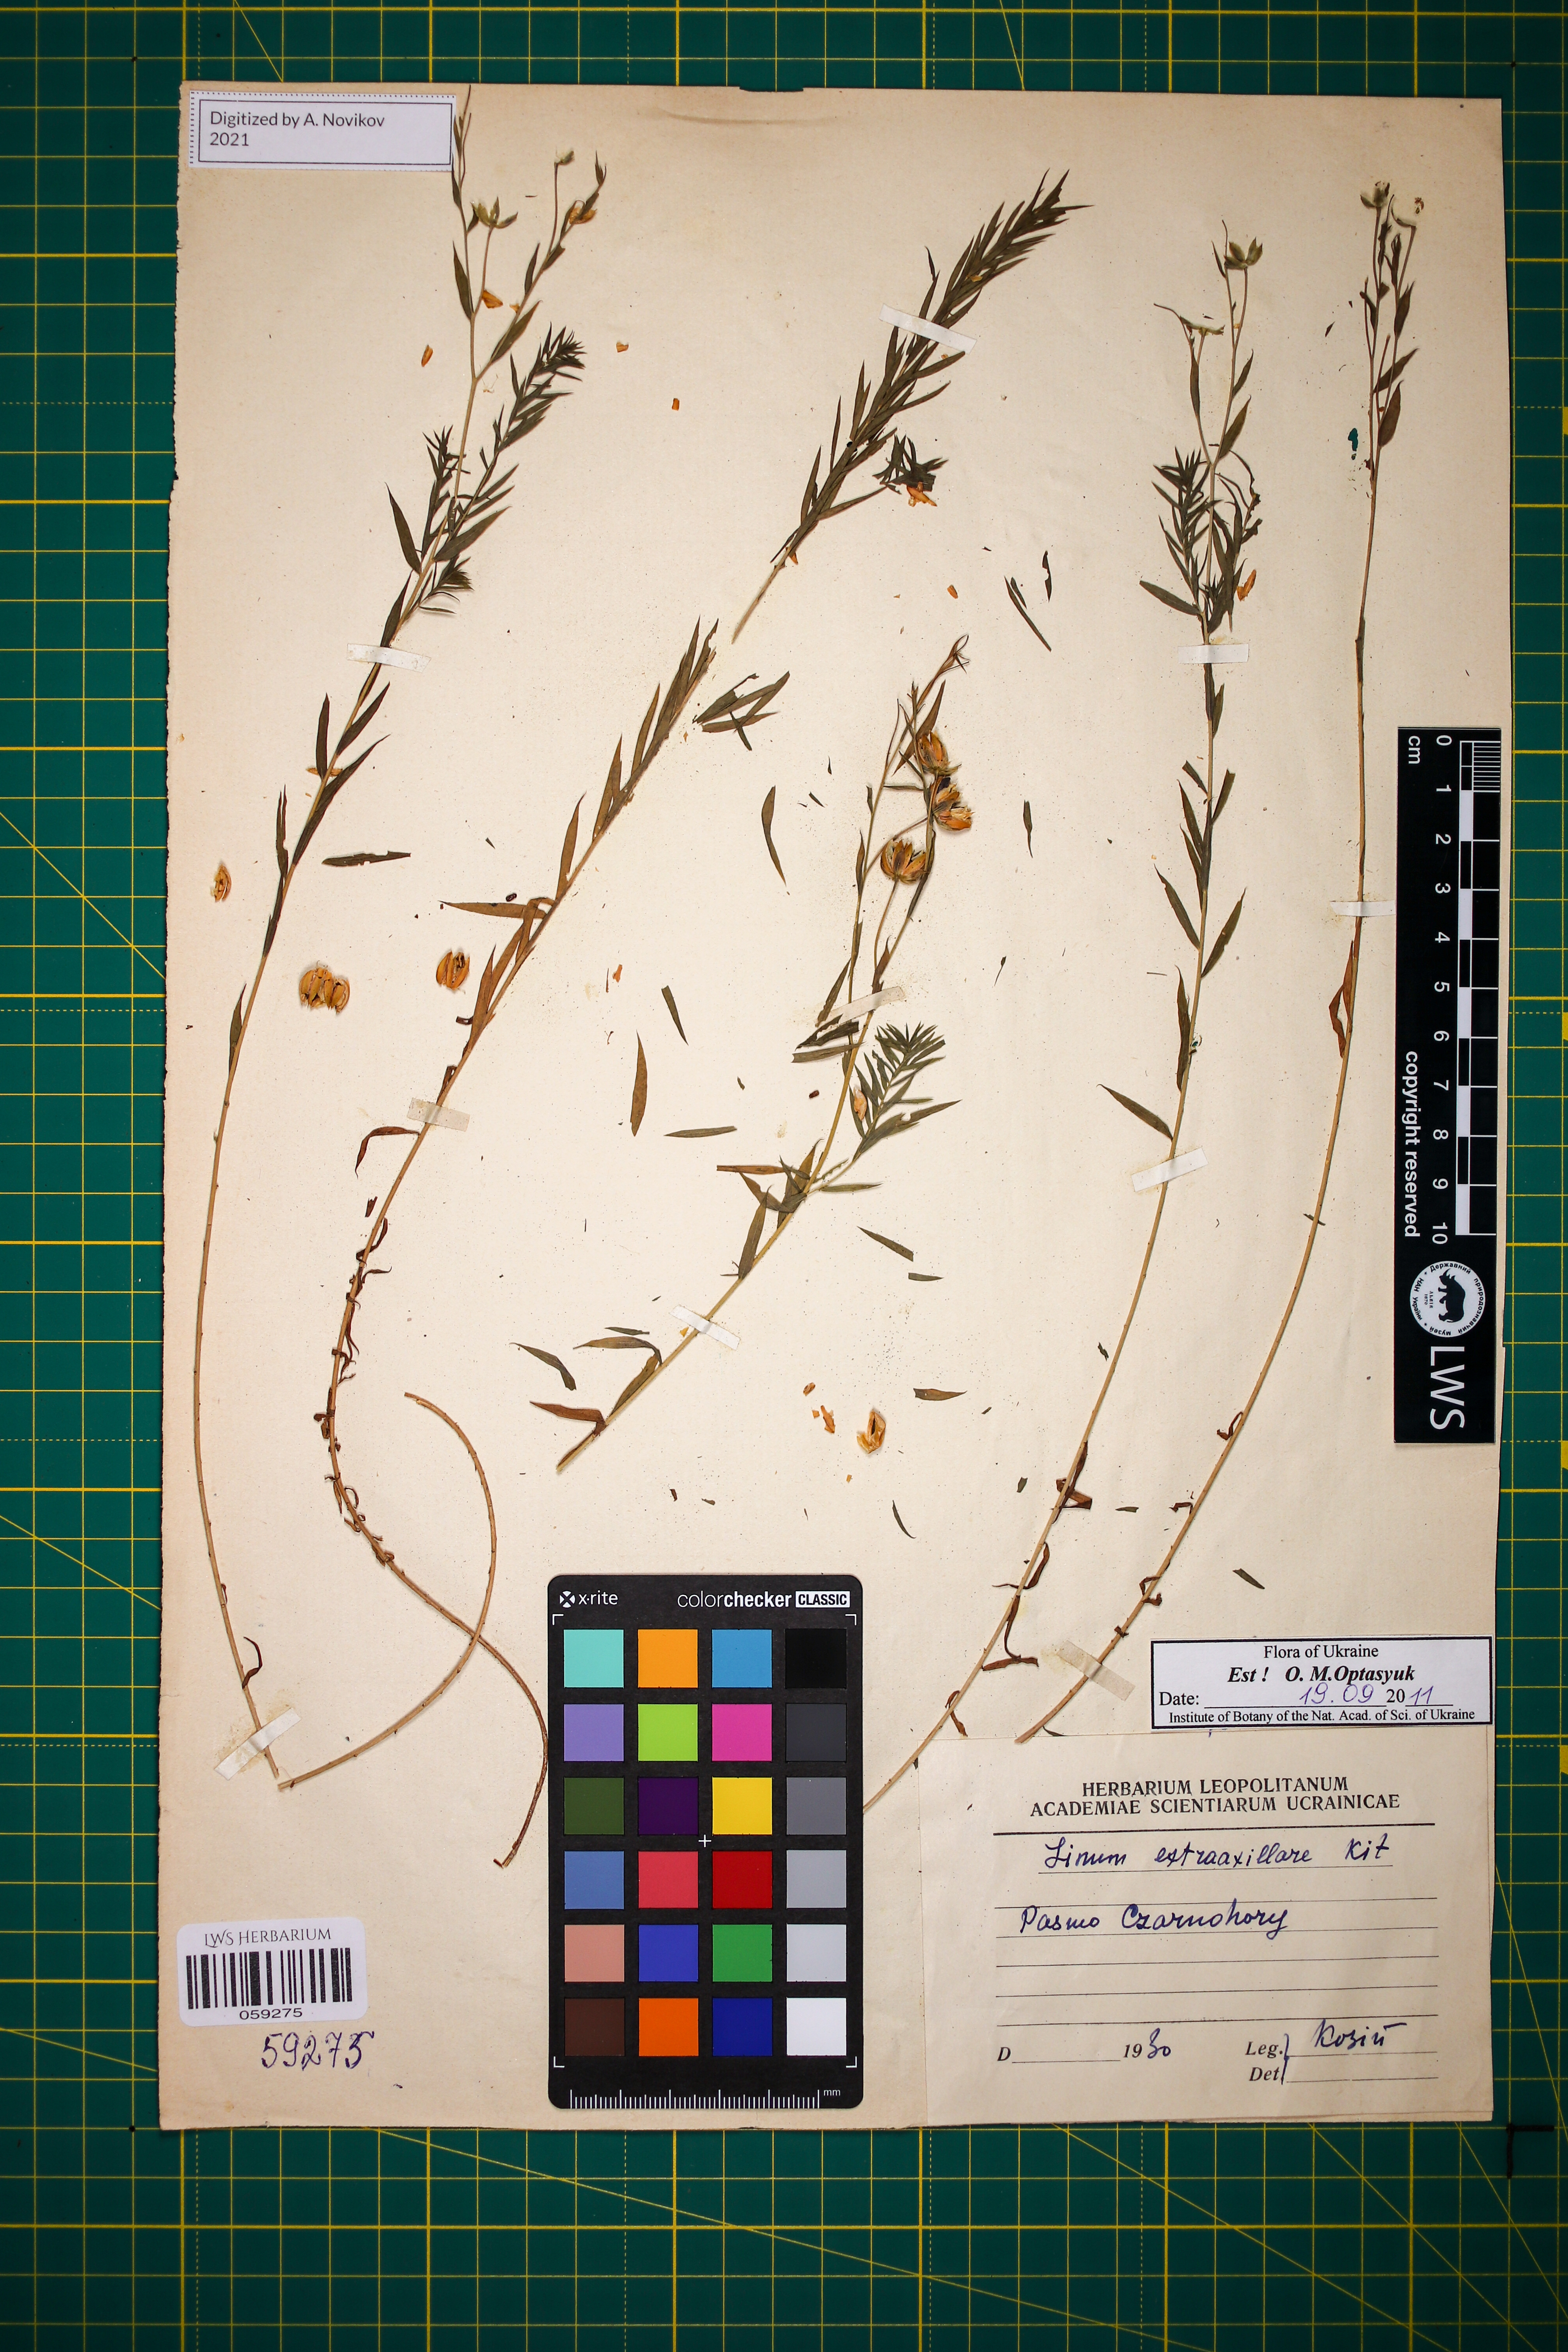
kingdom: Plantae
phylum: Tracheophyta
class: Magnoliopsida
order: Malpighiales
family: Linaceae
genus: Linum
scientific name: Linum perenne
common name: Blue flax
